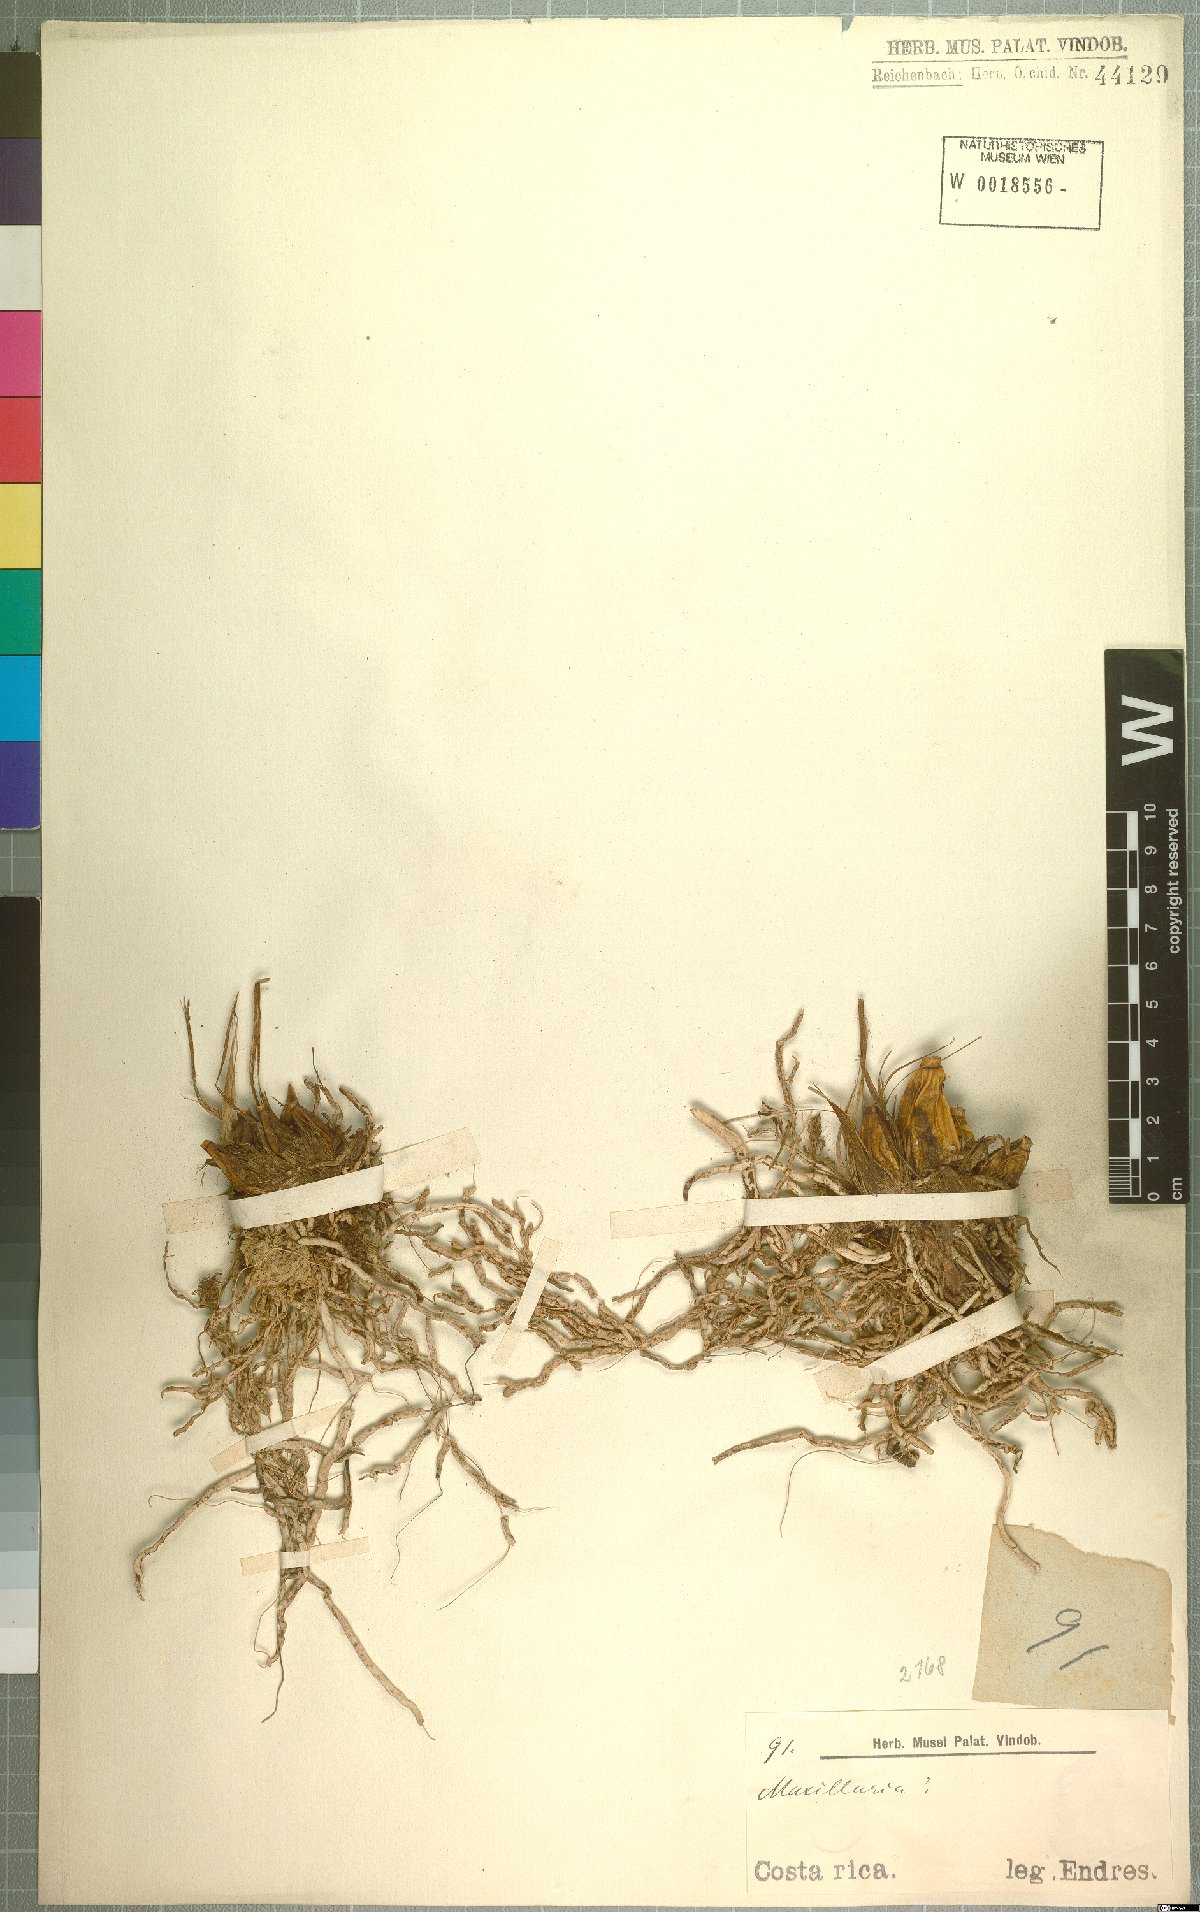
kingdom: Plantae
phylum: Tracheophyta
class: Liliopsida
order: Asparagales
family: Orchidaceae
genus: Maxillaria
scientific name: Maxillaria
